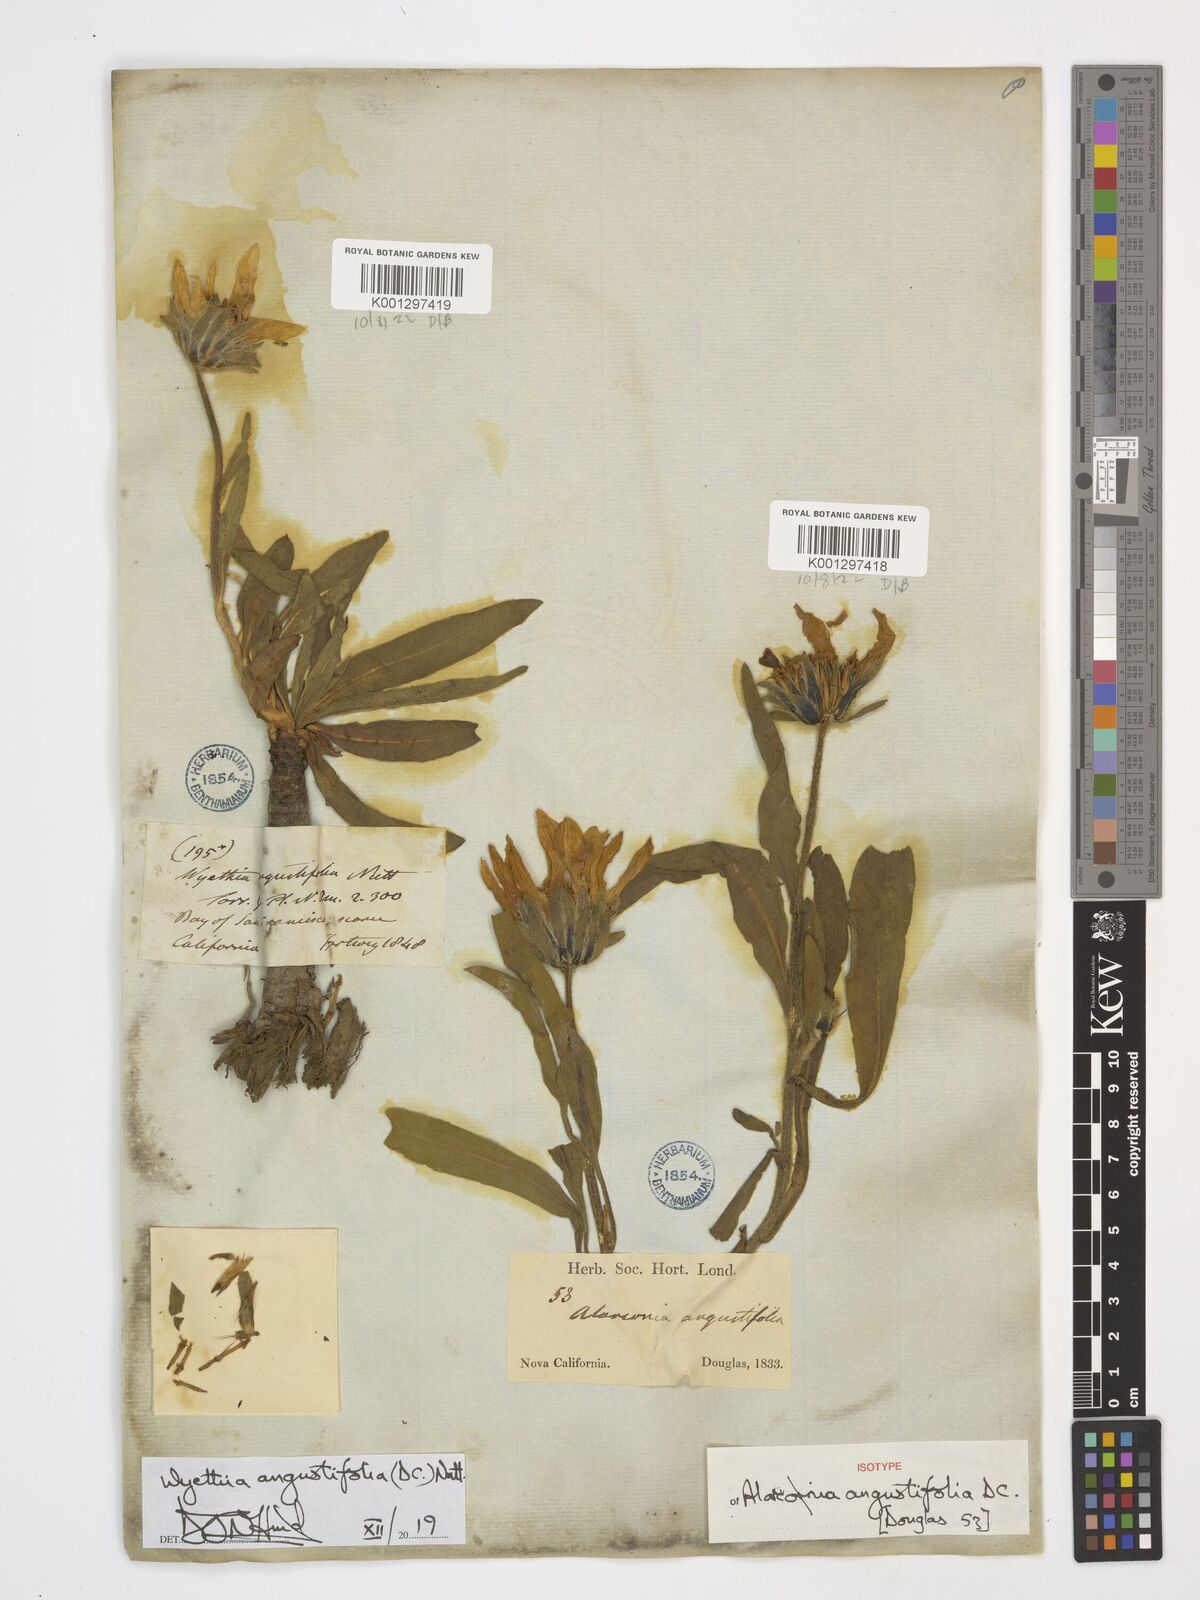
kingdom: Plantae
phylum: Tracheophyta
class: Magnoliopsida
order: Asterales
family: Asteraceae
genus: Wyethia
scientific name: Wyethia angustifolia
